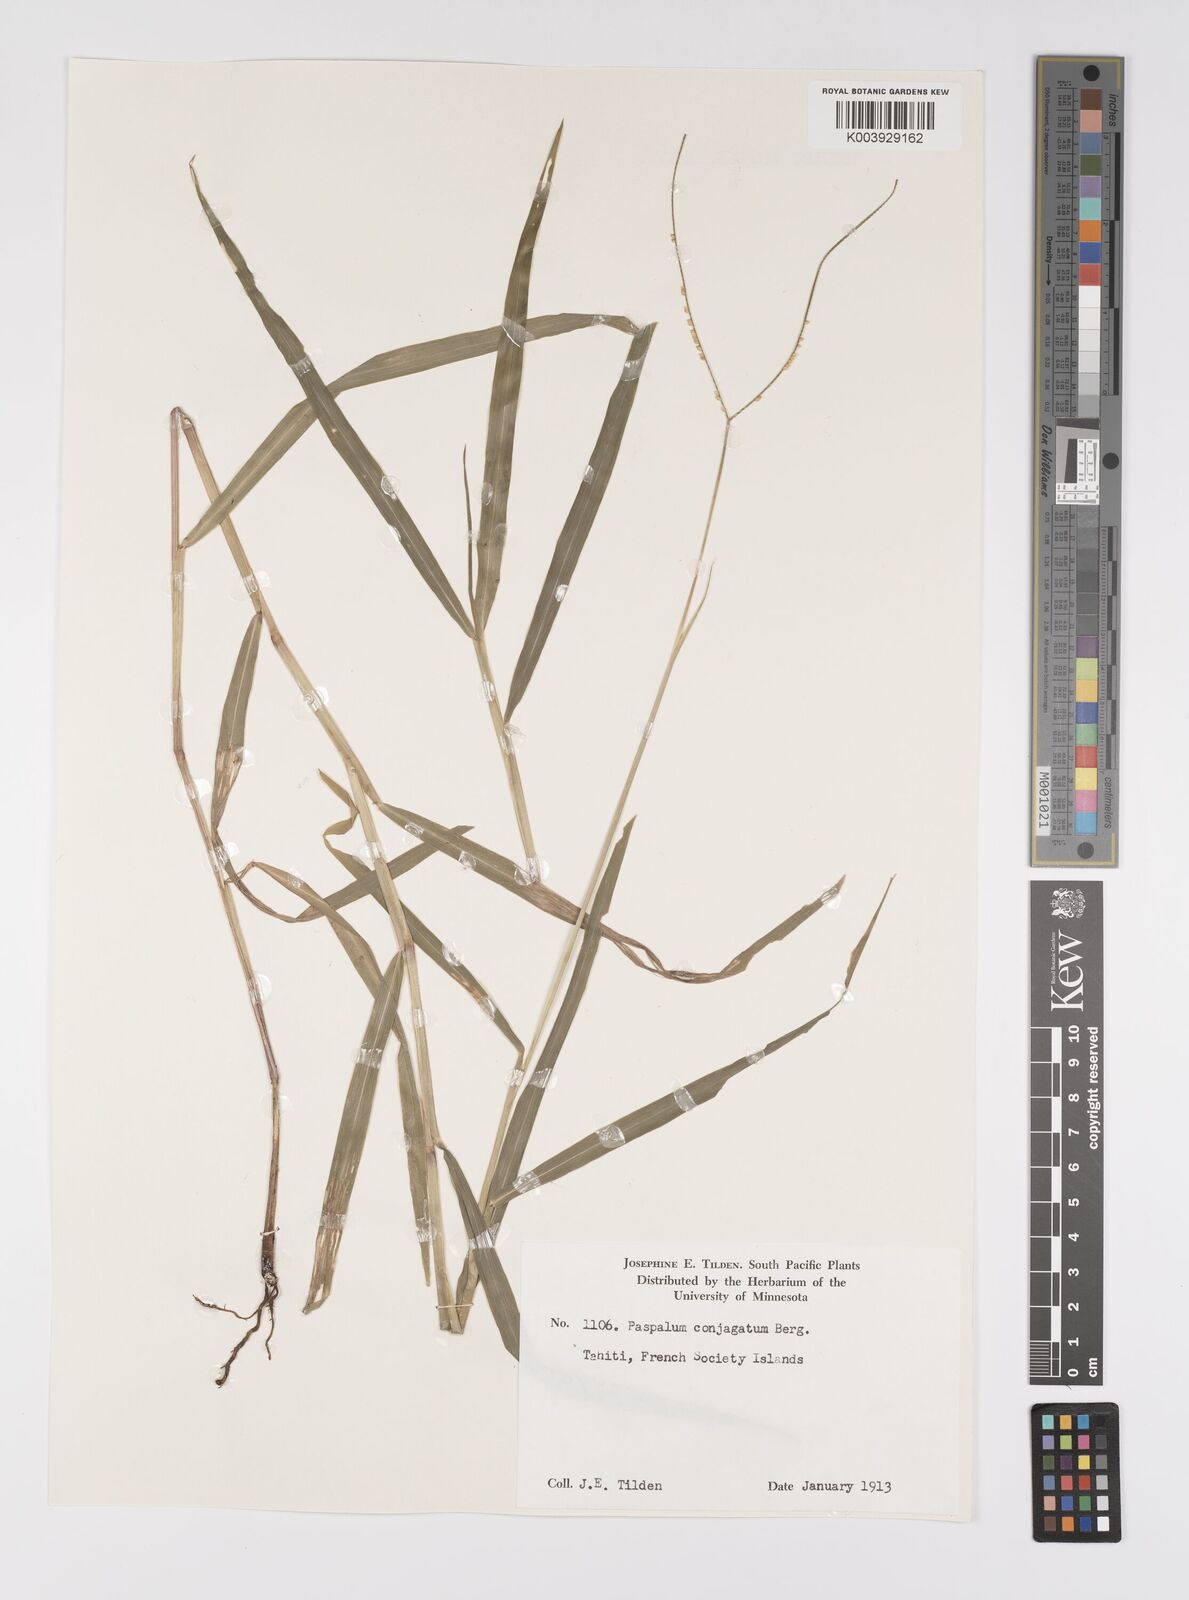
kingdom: Plantae
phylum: Tracheophyta
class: Liliopsida
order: Poales
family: Poaceae
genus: Paspalum
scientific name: Paspalum conjugatum
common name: Hilograss
